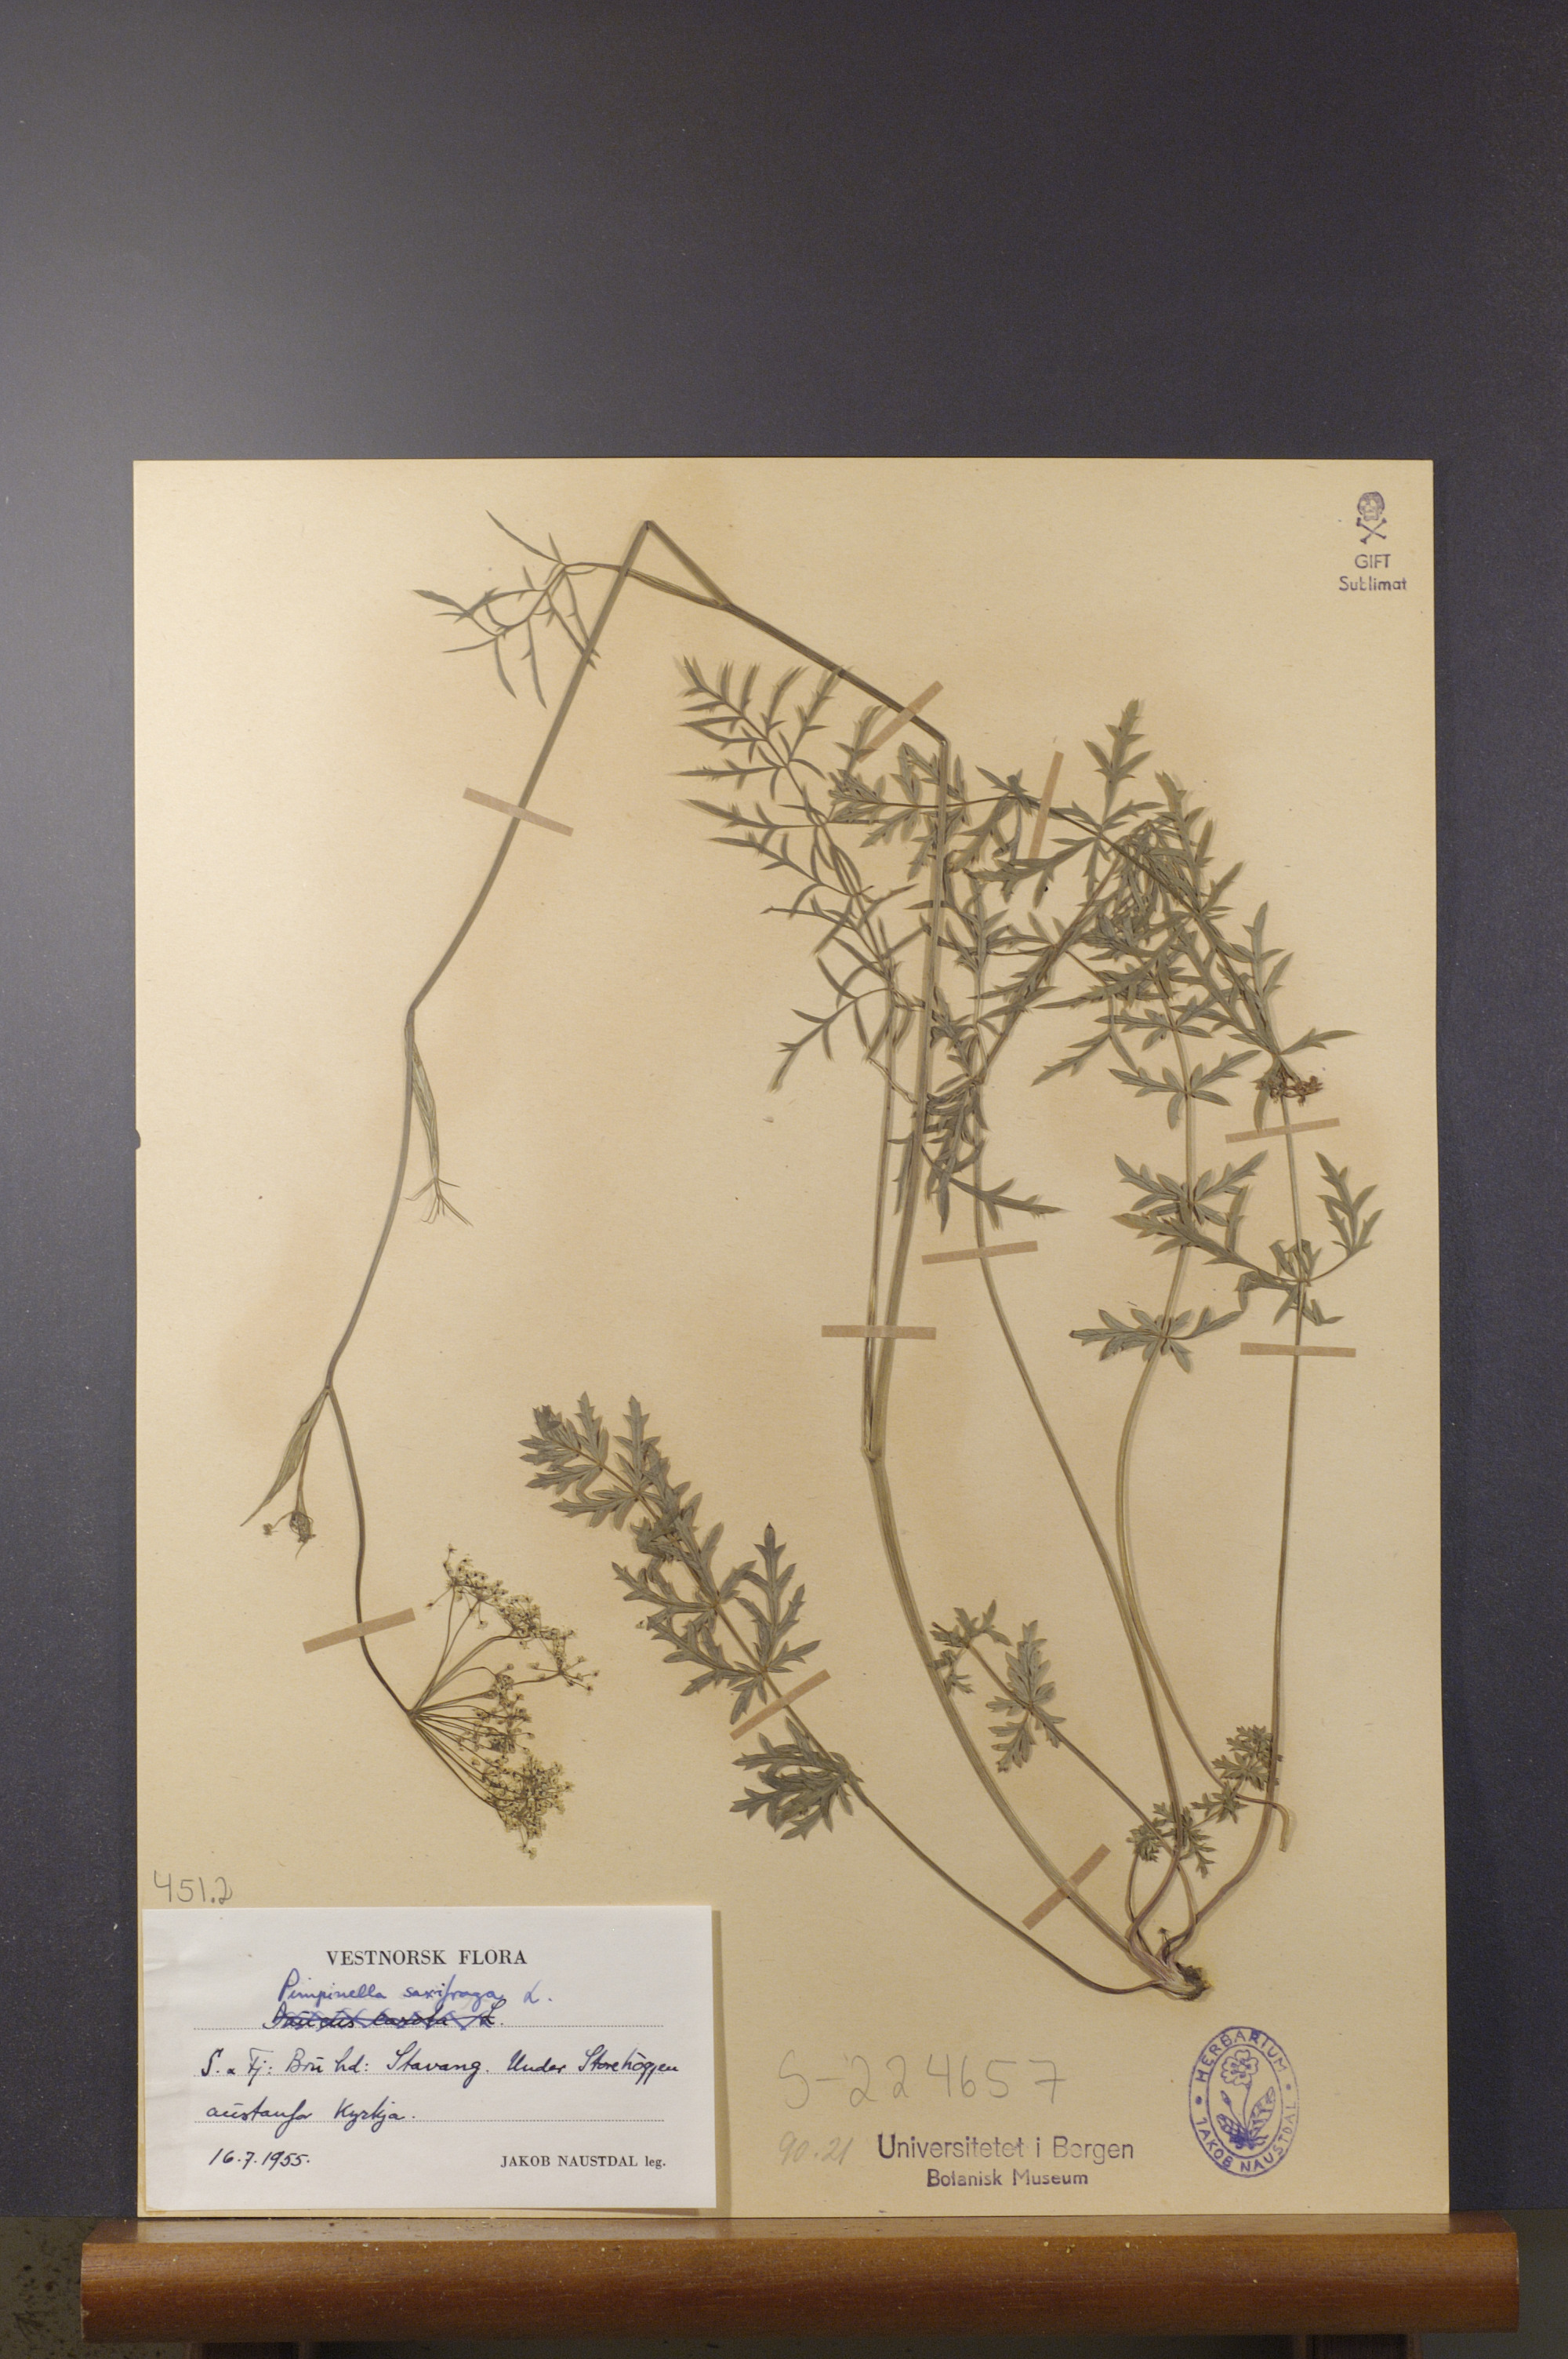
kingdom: Plantae
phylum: Tracheophyta
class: Magnoliopsida
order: Apiales
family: Apiaceae
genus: Pimpinella
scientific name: Pimpinella saxifraga
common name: Burnet-saxifrage
